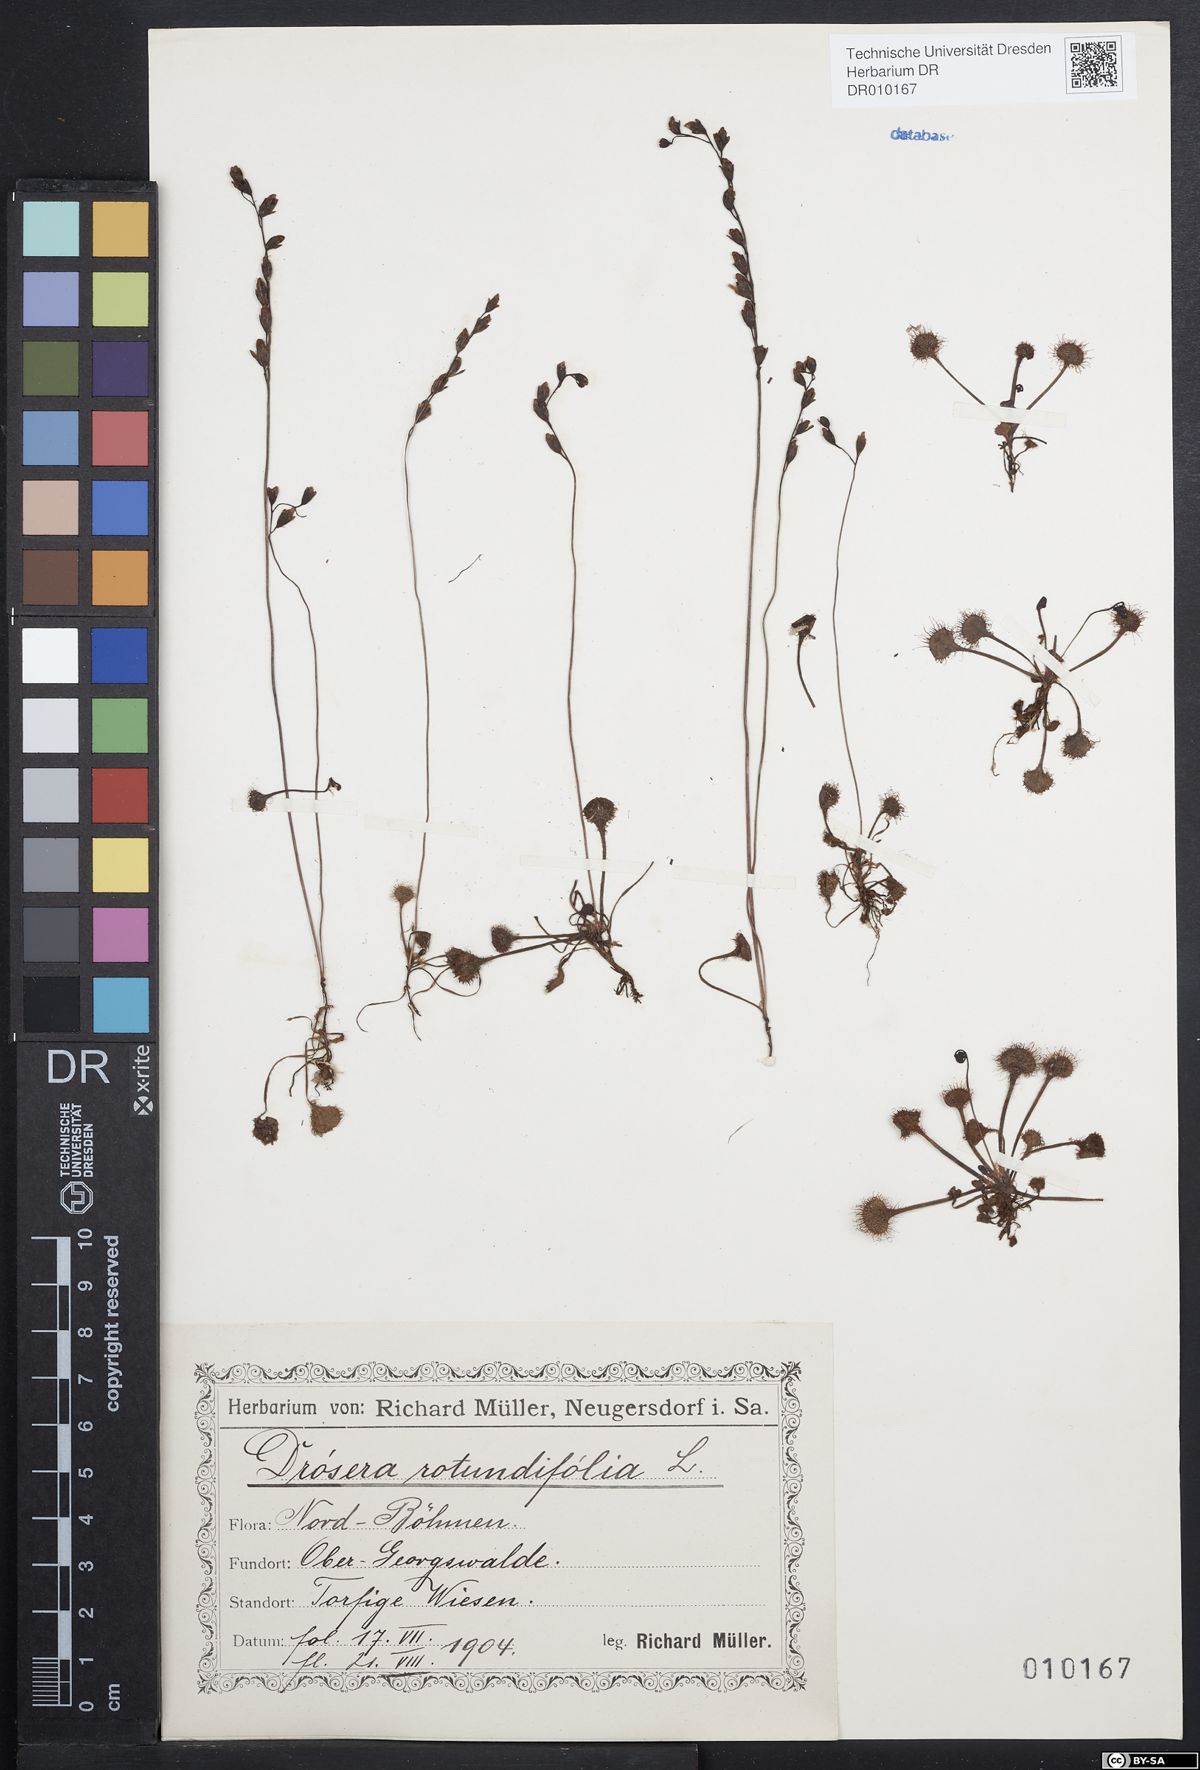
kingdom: Plantae
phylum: Tracheophyta
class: Magnoliopsida
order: Caryophyllales
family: Droseraceae
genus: Drosera
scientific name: Drosera rotundifolia
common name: Round-leaved sundew
